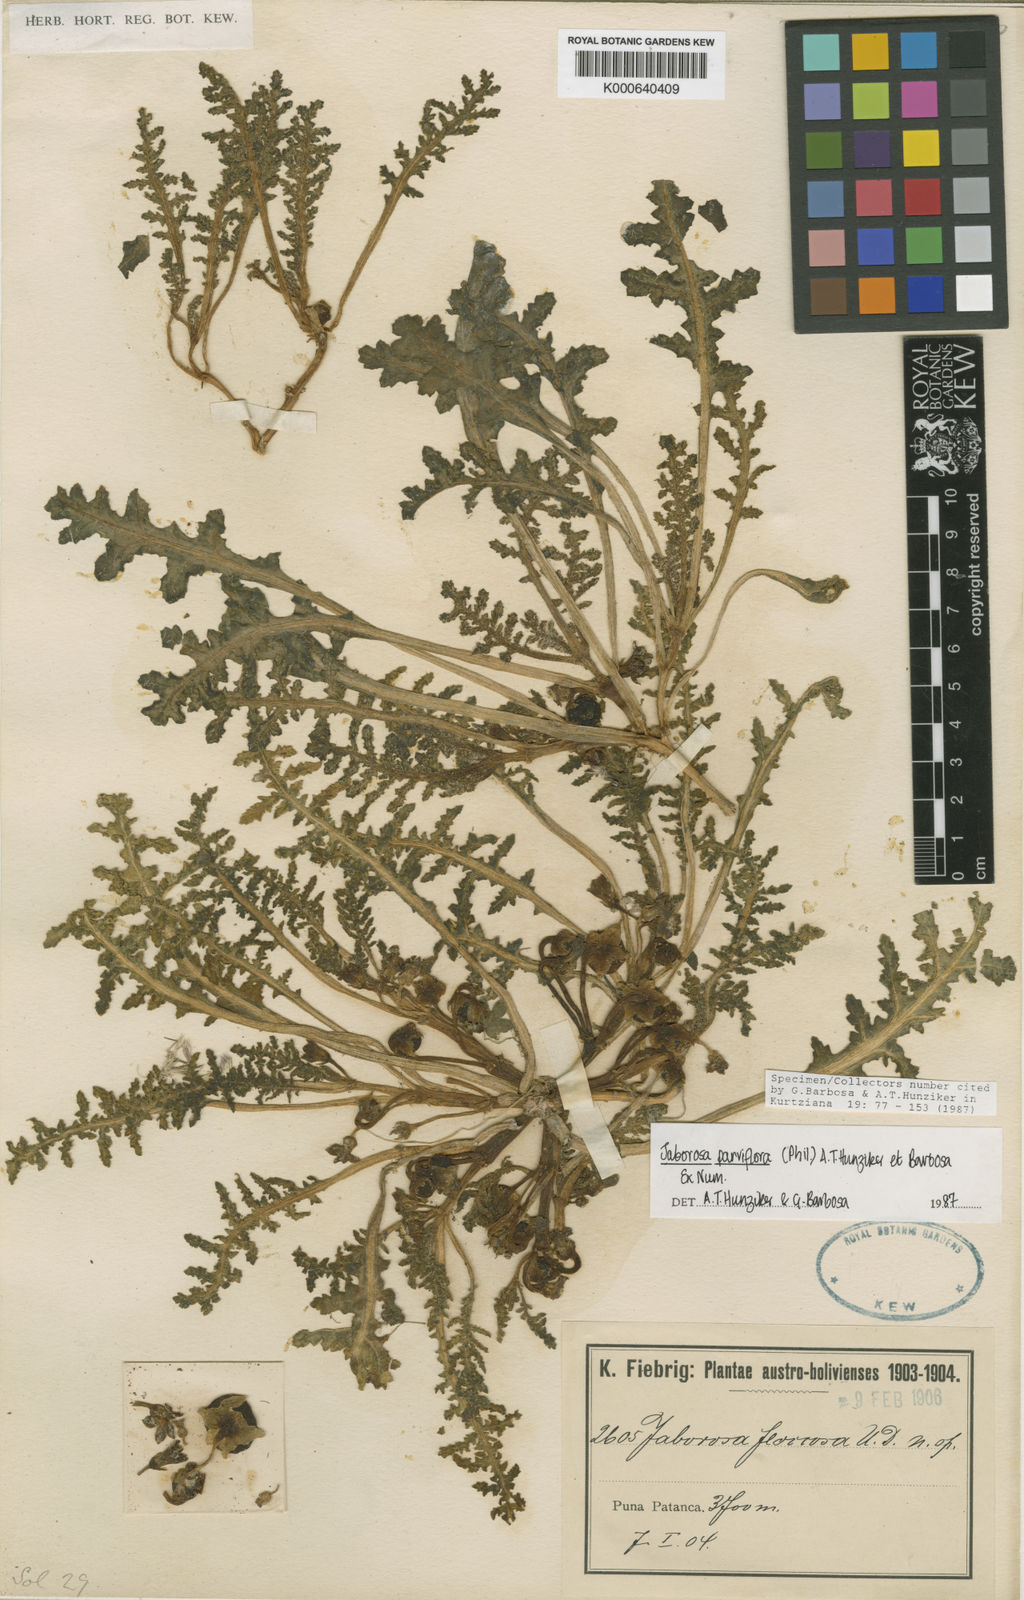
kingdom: Plantae
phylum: Tracheophyta
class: Magnoliopsida
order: Solanales
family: Solanaceae
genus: Jaborosa
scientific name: Jaborosa parviflora
